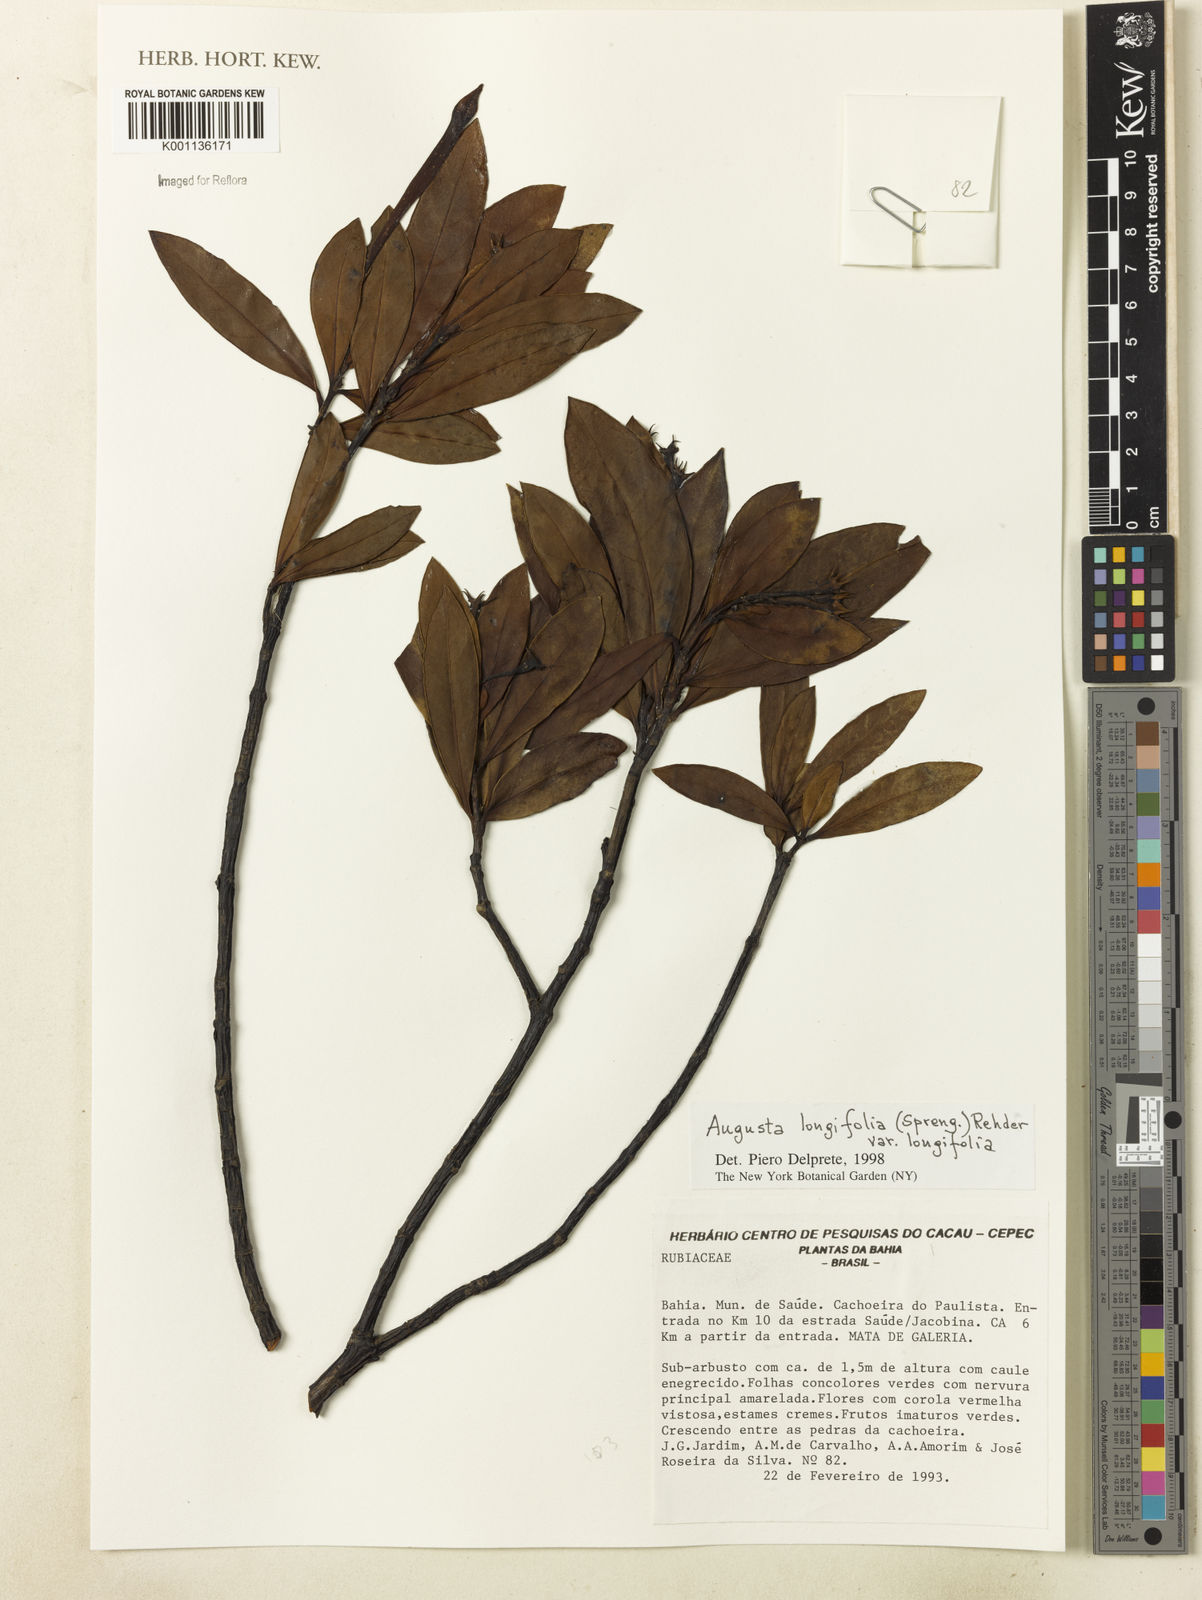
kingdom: Plantae
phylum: Tracheophyta
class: Magnoliopsida
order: Gentianales
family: Rubiaceae
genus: Augusta
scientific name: Augusta longifolia
